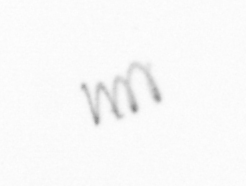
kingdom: Chromista
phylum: Ochrophyta
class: Bacillariophyceae
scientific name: Bacillariophyceae
